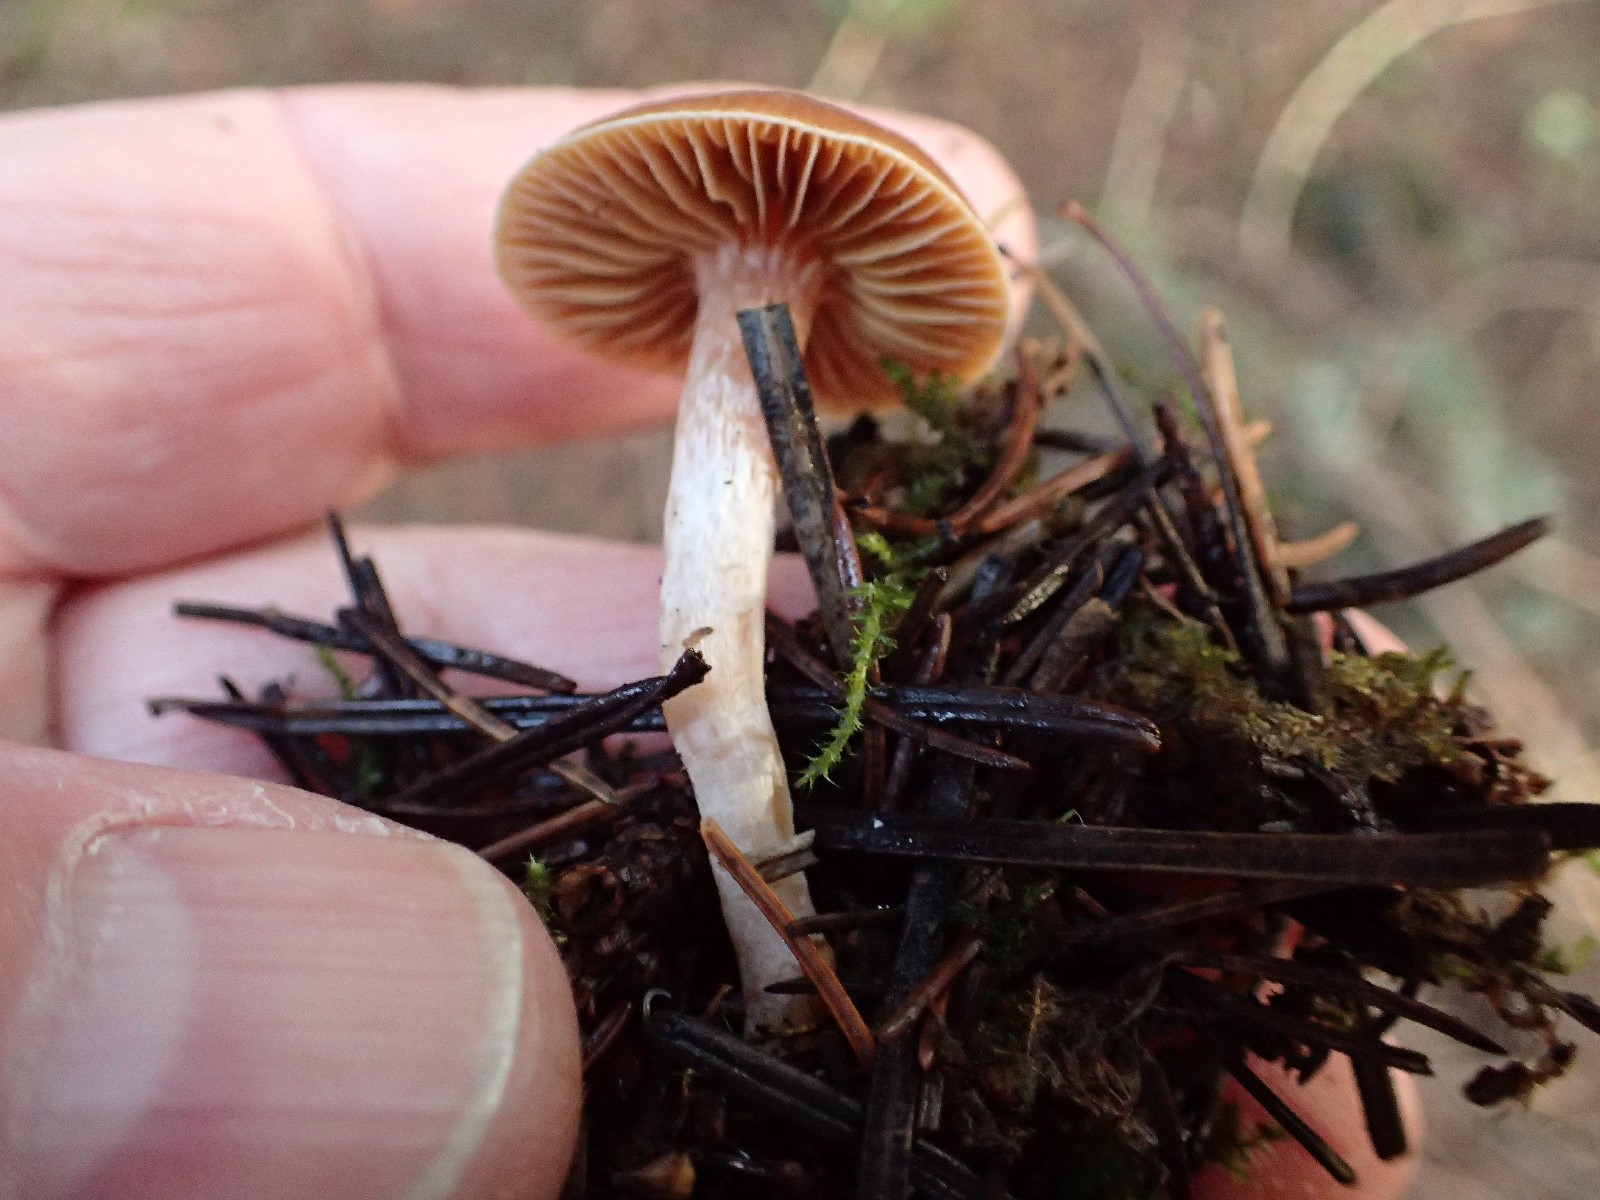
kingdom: Fungi
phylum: Basidiomycota
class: Agaricomycetes
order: Agaricales
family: Tubariaceae
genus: Tubaria
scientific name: Tubaria furfuracea
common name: kliddet fnughat
